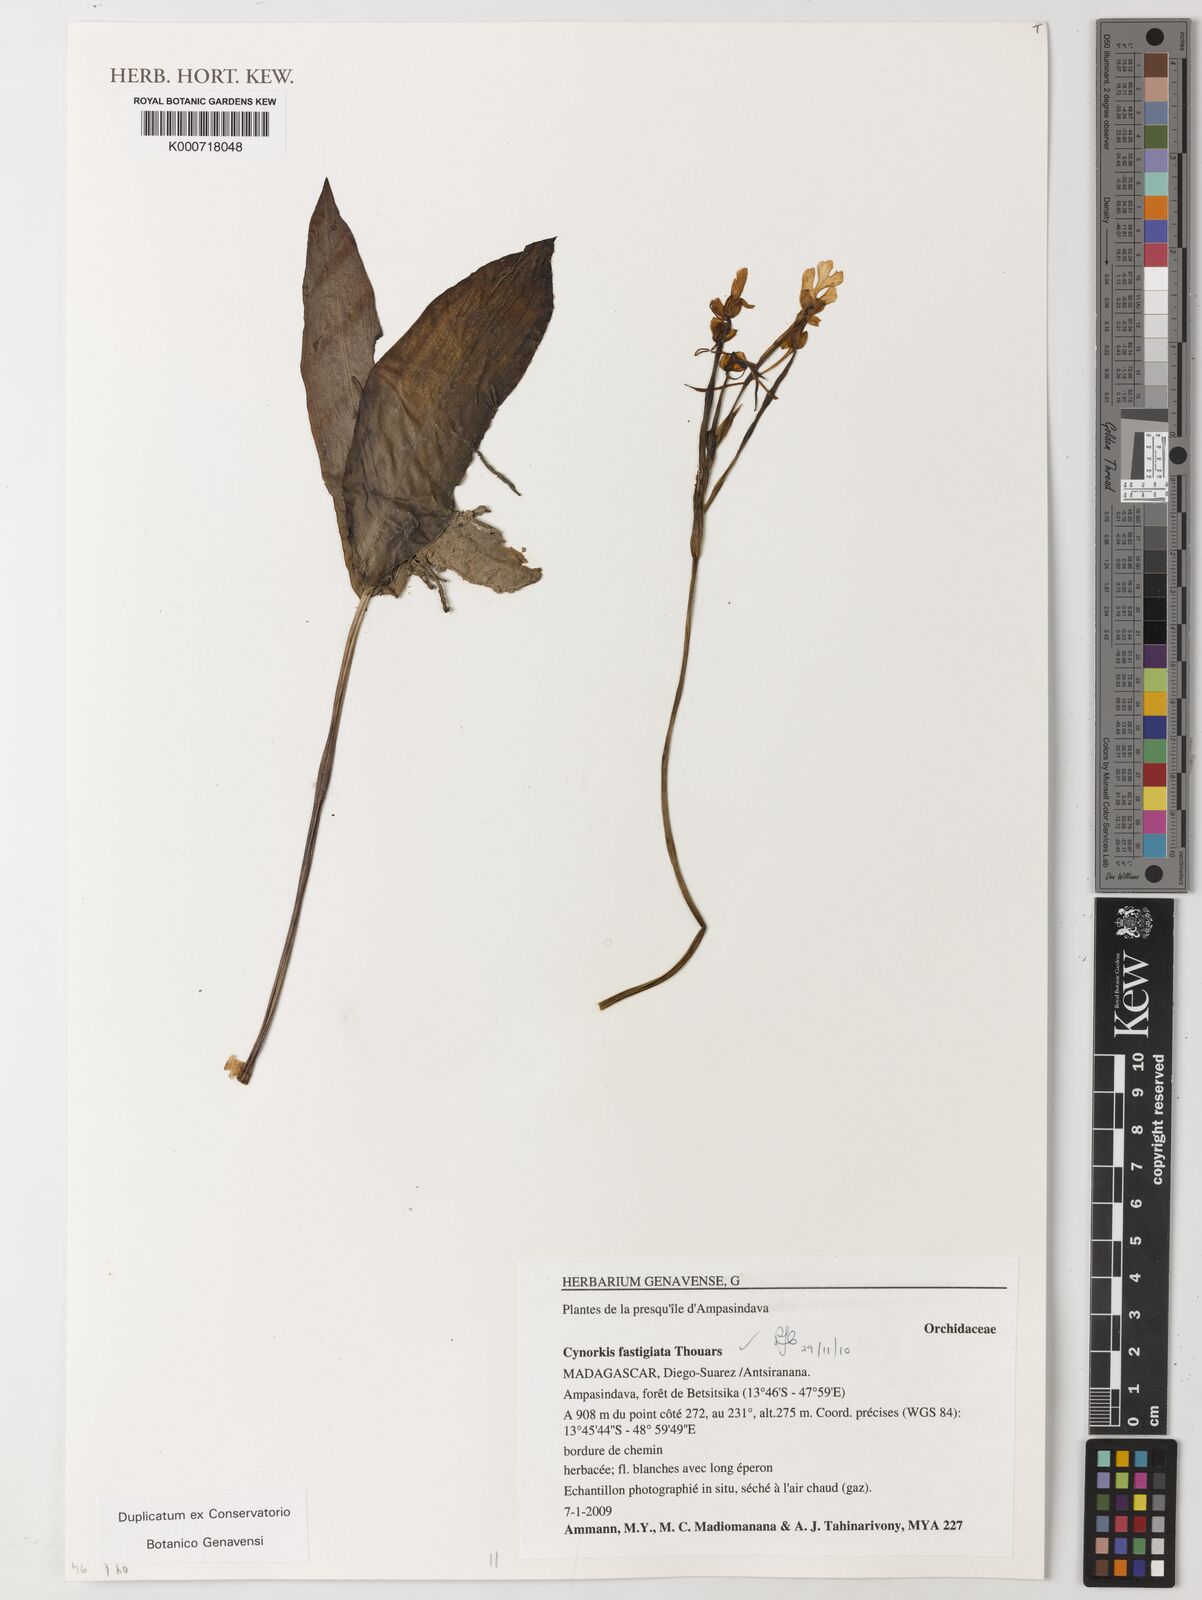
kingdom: Plantae
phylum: Tracheophyta
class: Liliopsida
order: Asparagales
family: Orchidaceae
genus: Cynorkis
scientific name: Cynorkis fastigiata
